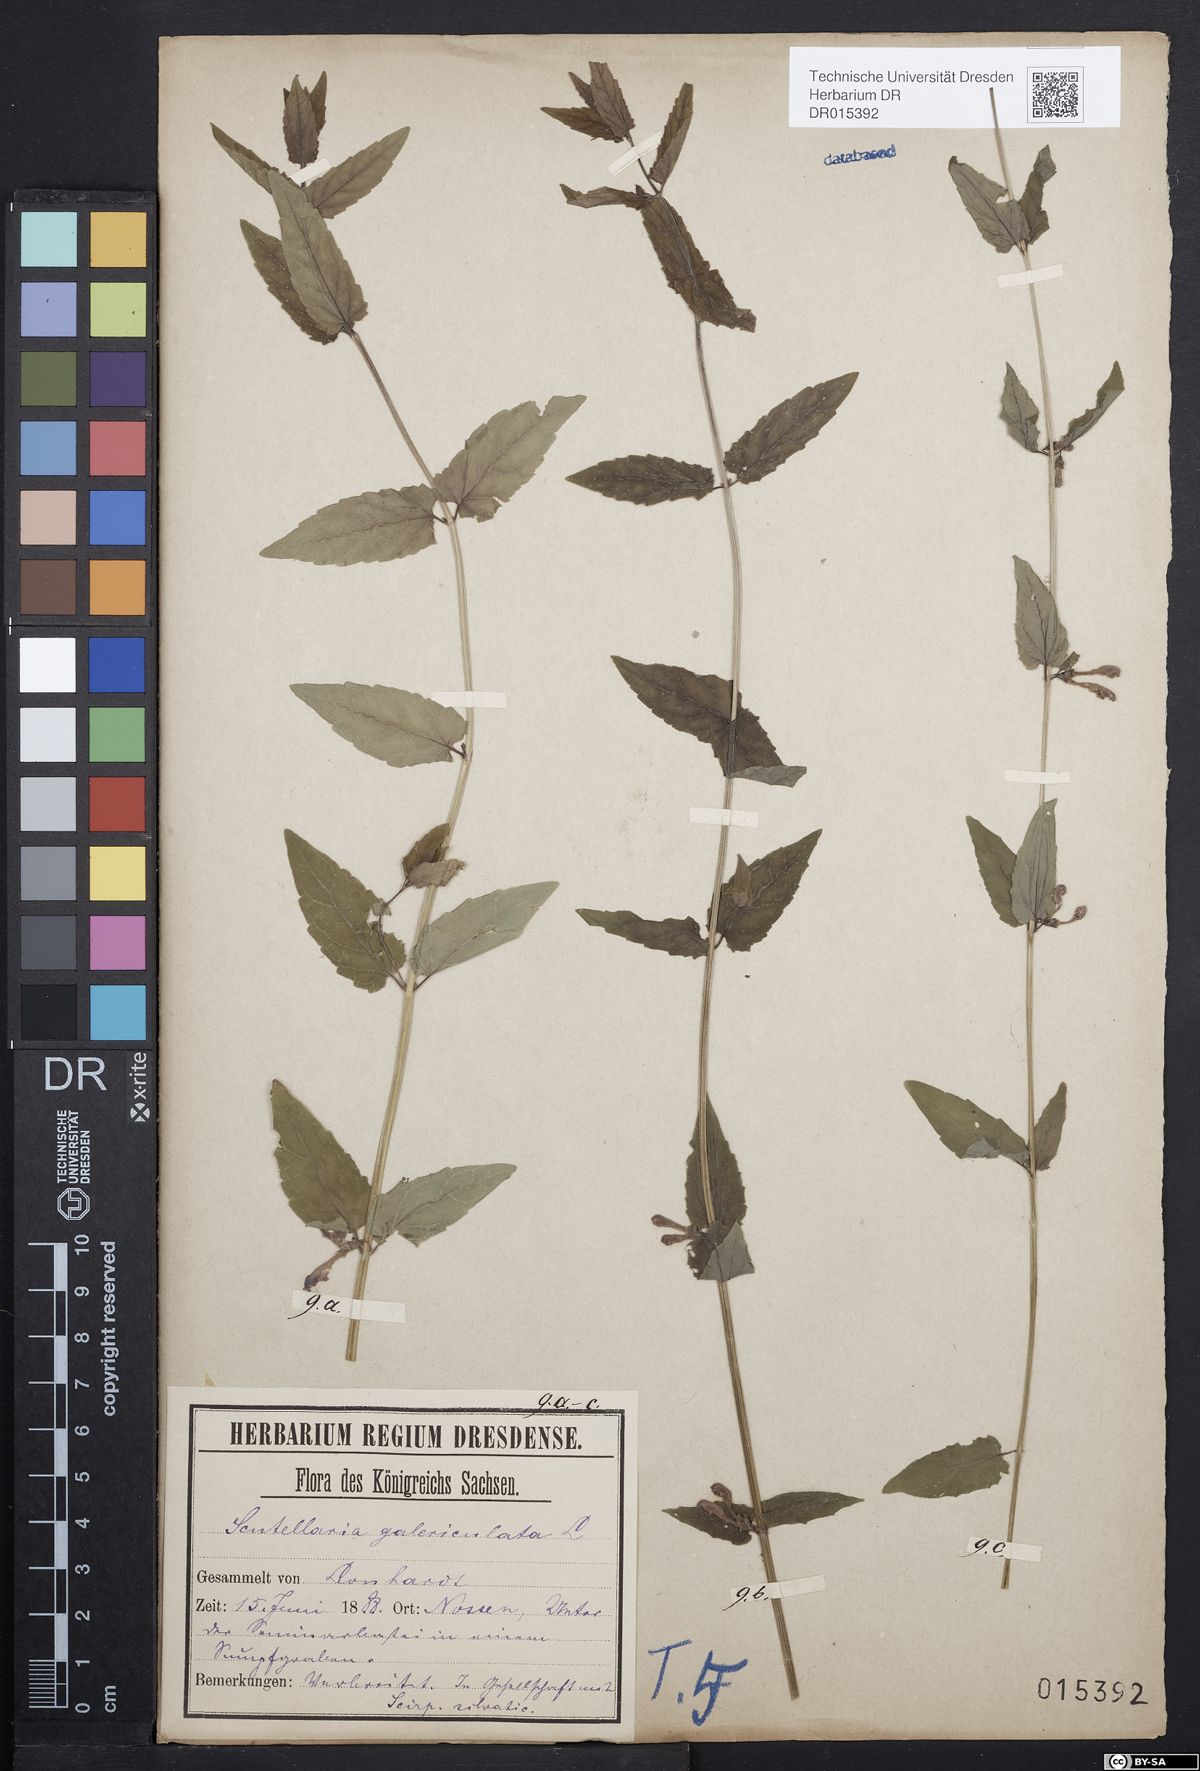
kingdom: Plantae
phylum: Tracheophyta
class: Magnoliopsida
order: Lamiales
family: Lamiaceae
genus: Scutellaria
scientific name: Scutellaria galericulata
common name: Skullcap
